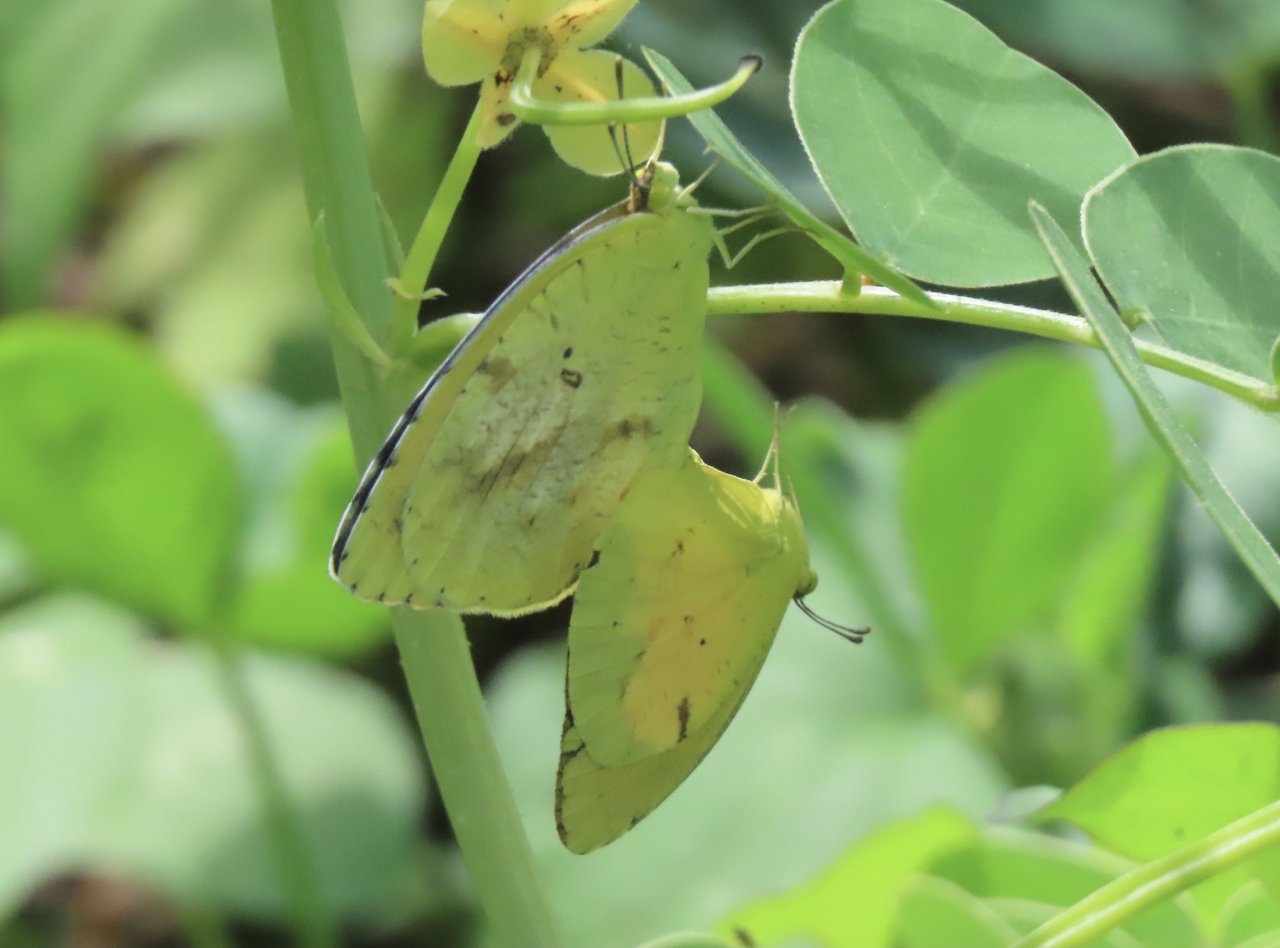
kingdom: Animalia
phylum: Arthropoda
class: Insecta
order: Lepidoptera
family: Pieridae
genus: Abaeis
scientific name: Abaeis nicippe
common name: Sleepy Orange
